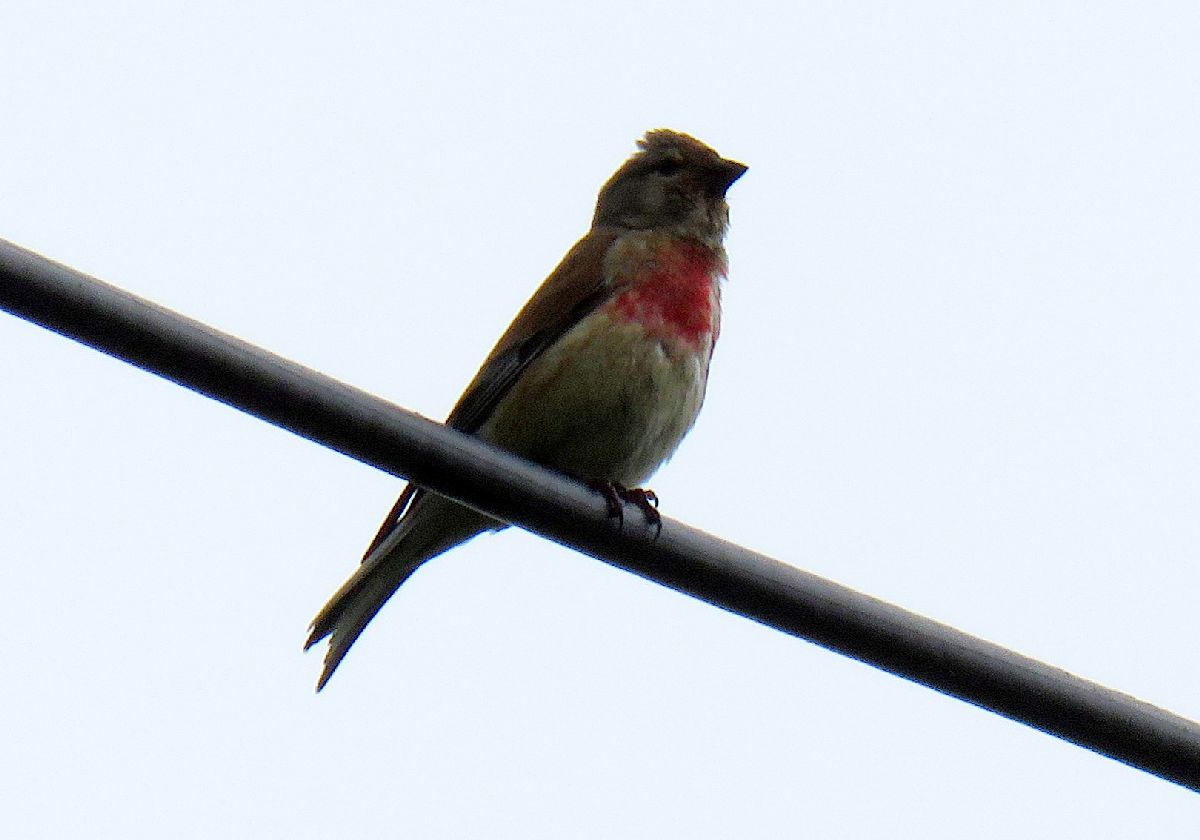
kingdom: Animalia
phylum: Chordata
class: Aves
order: Passeriformes
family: Fringillidae
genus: Linaria
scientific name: Linaria cannabina
